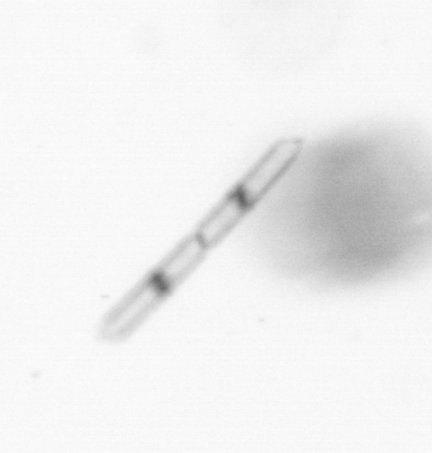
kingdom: Chromista
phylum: Ochrophyta
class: Bacillariophyceae
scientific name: Bacillariophyceae
